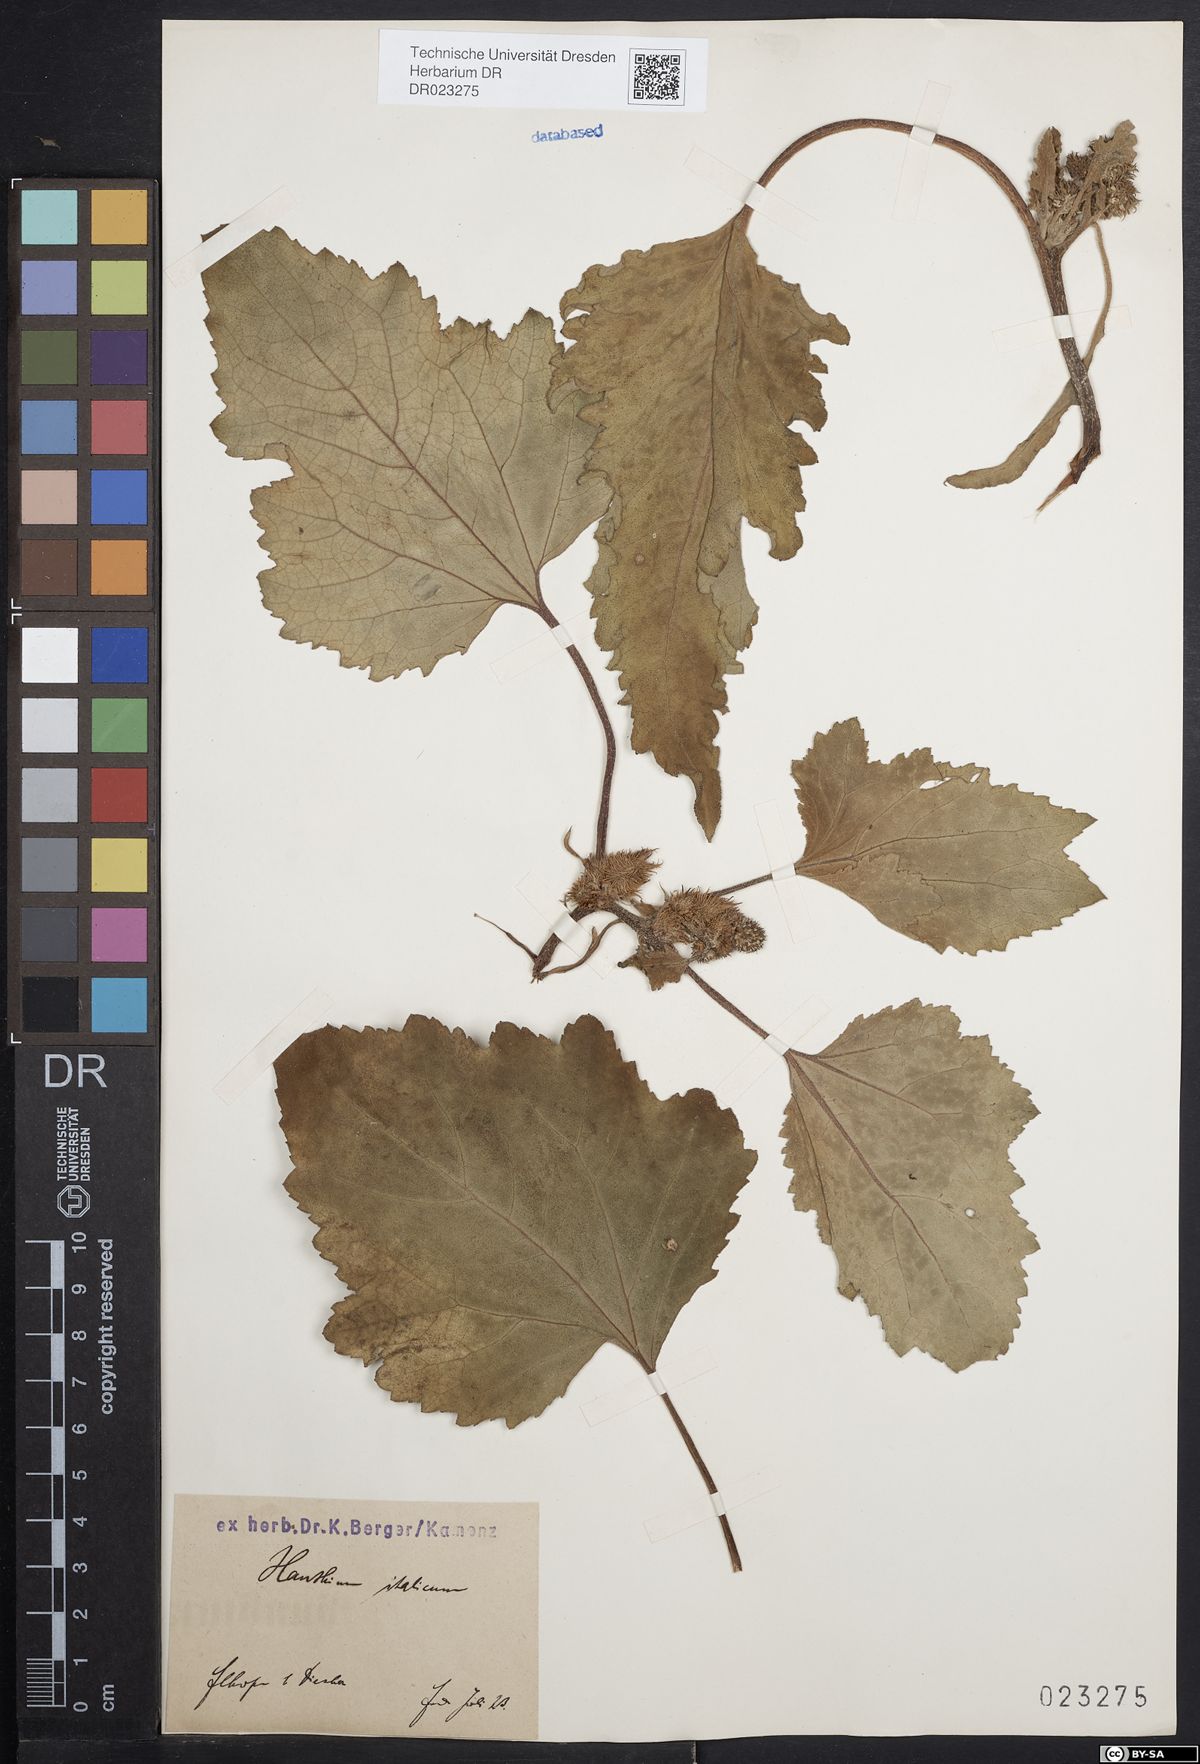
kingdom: Plantae
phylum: Tracheophyta
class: Magnoliopsida
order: Asterales
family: Asteraceae
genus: Xanthium
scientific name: Xanthium orientale
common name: Californian burr
